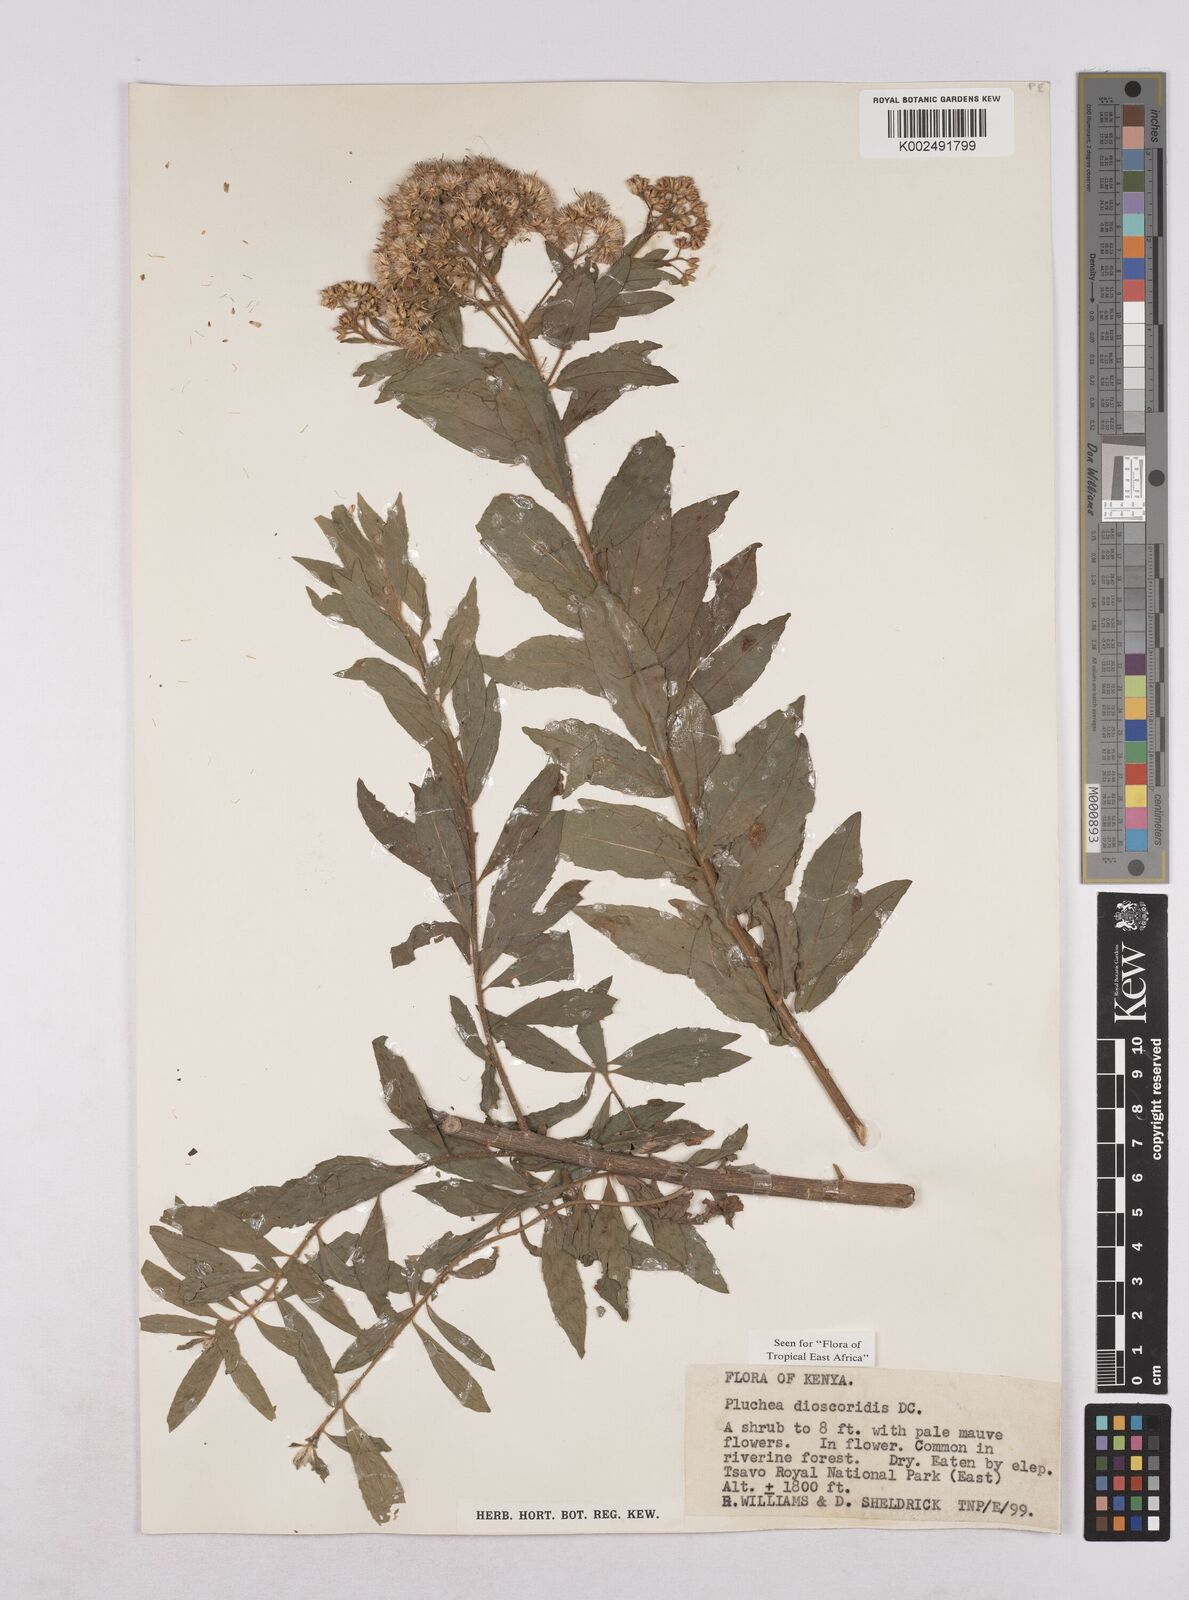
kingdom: Plantae
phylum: Tracheophyta
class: Magnoliopsida
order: Asterales
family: Asteraceae
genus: Pluchea
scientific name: Pluchea dioscoridis
